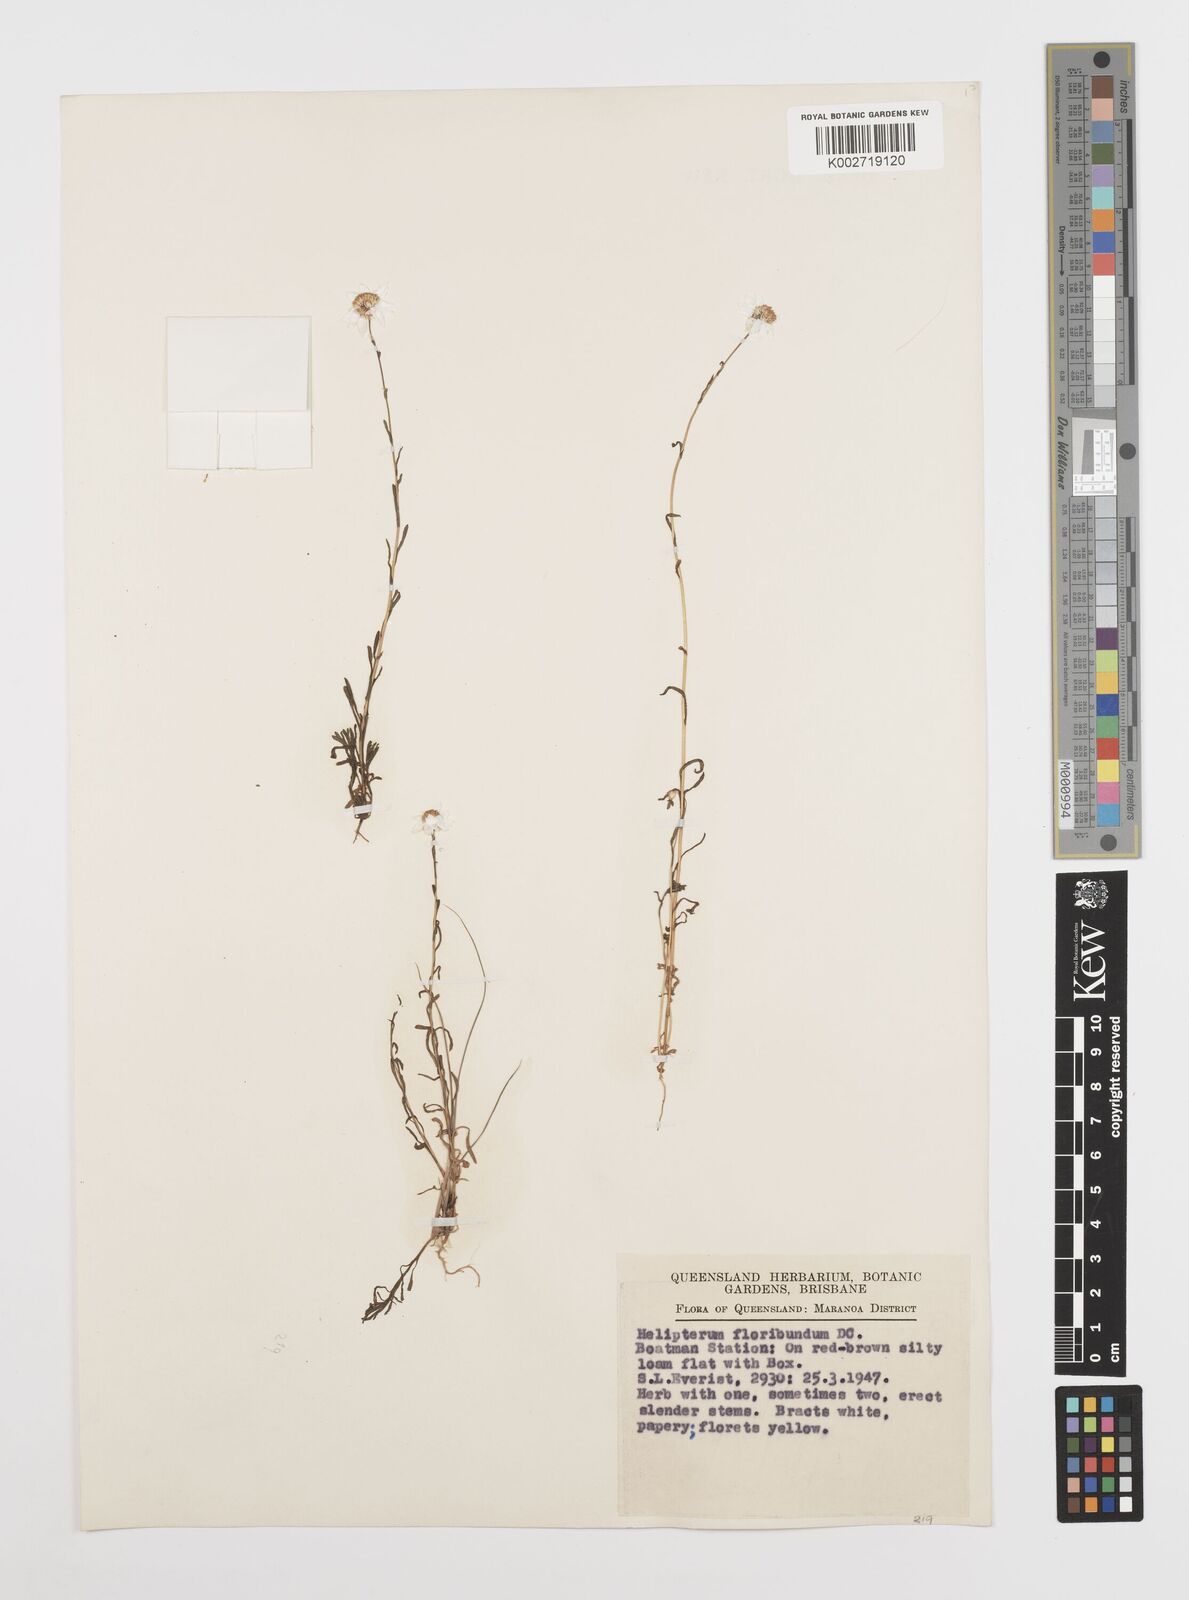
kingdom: Plantae
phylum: Tracheophyta
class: Magnoliopsida
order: Asterales
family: Asteraceae
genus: Rhodanthe
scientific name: Rhodanthe diffusa
